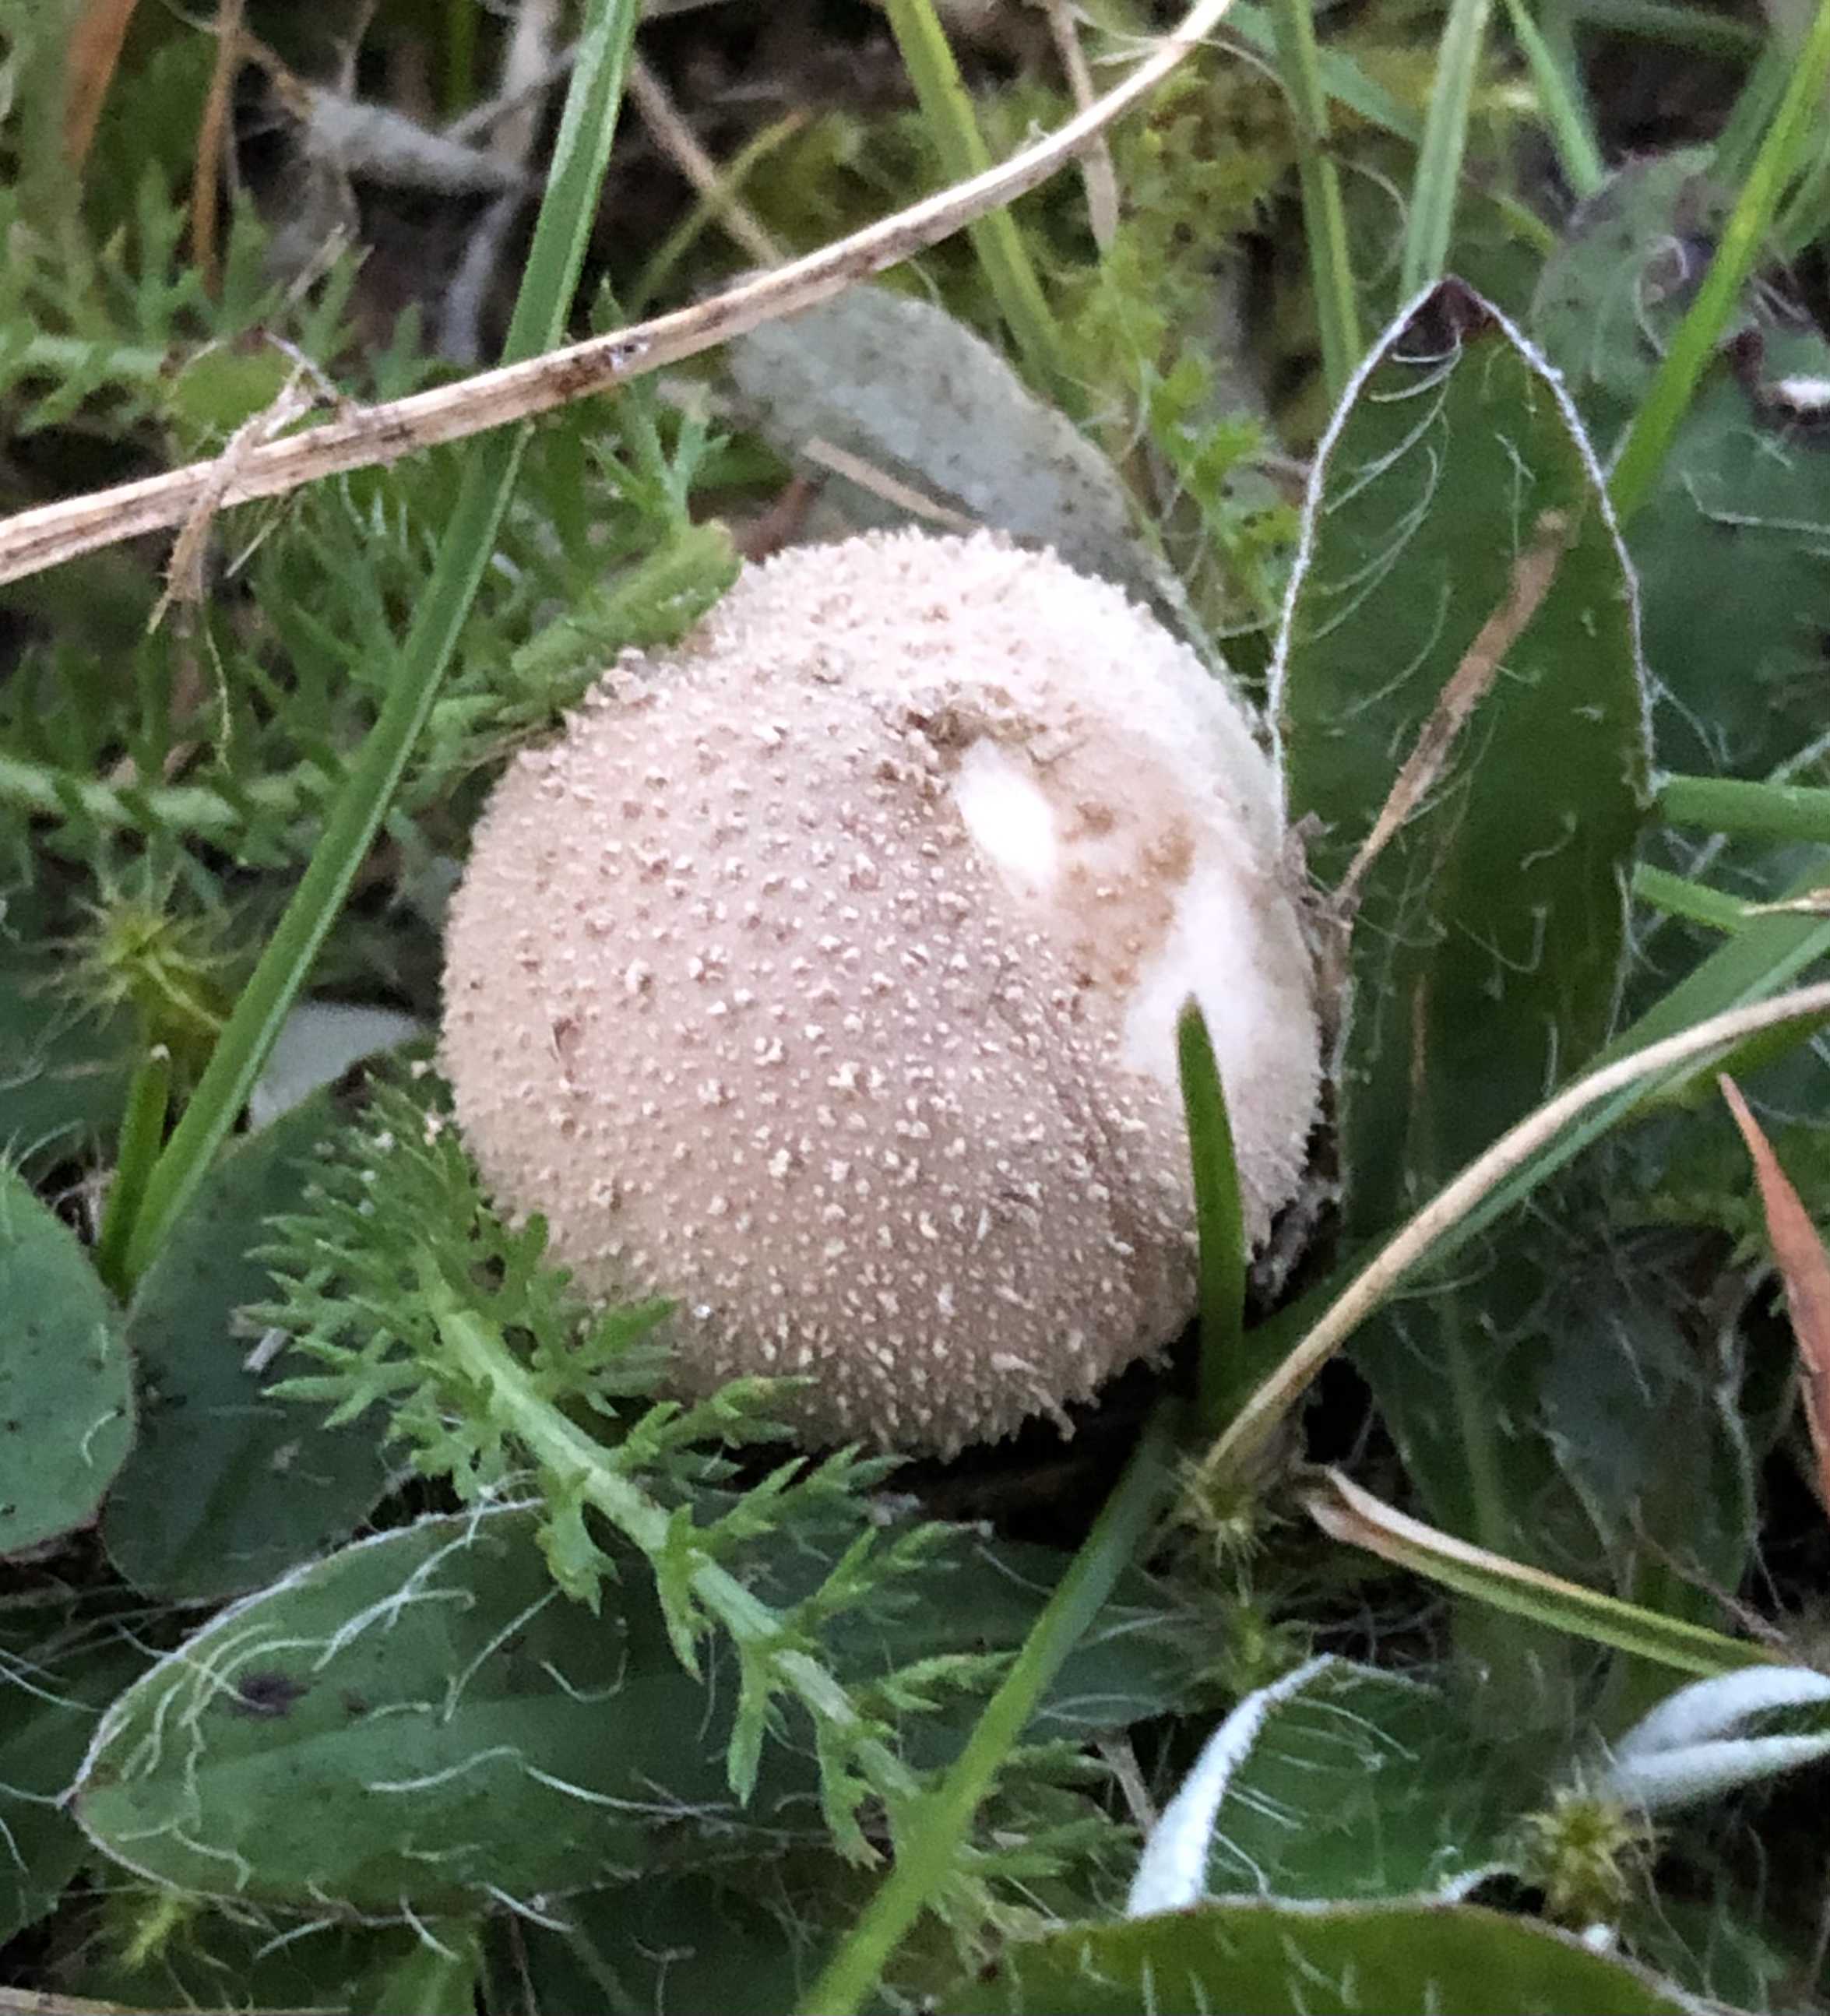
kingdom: Fungi
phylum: Basidiomycota
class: Agaricomycetes
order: Agaricales
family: Agaricaceae
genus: Lycoperdon
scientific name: Lycoperdon
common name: støvbold
